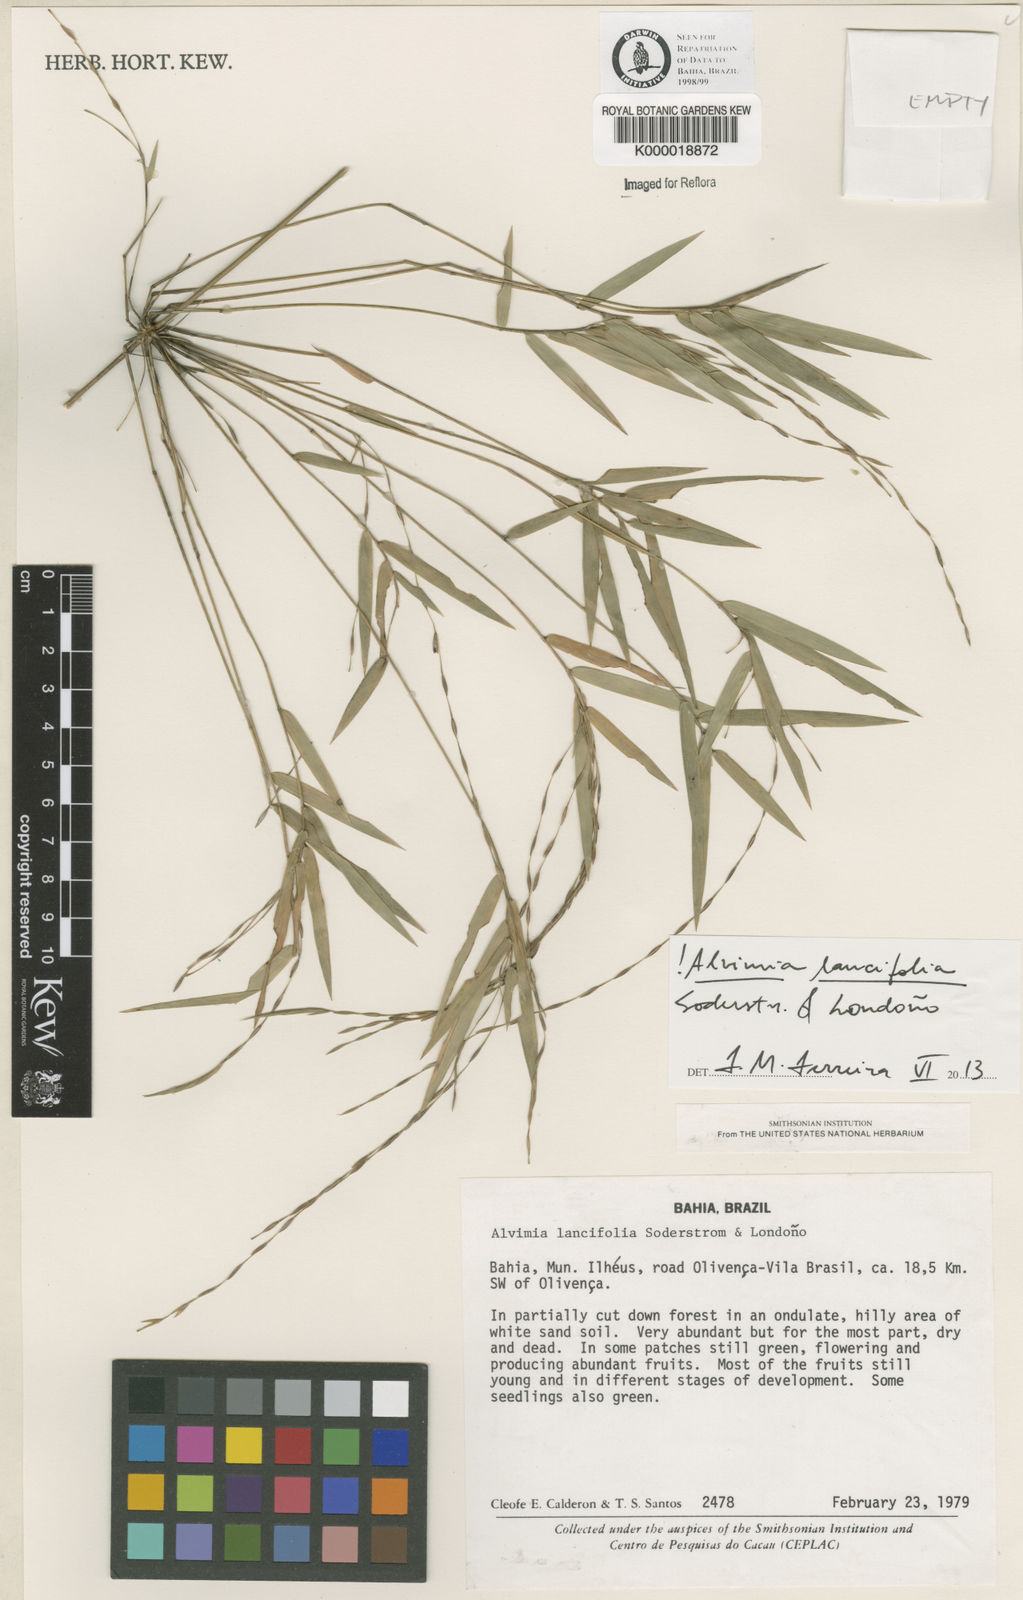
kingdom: Plantae
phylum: Tracheophyta
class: Liliopsida
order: Poales
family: Poaceae
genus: Alvimia
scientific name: Alvimia
